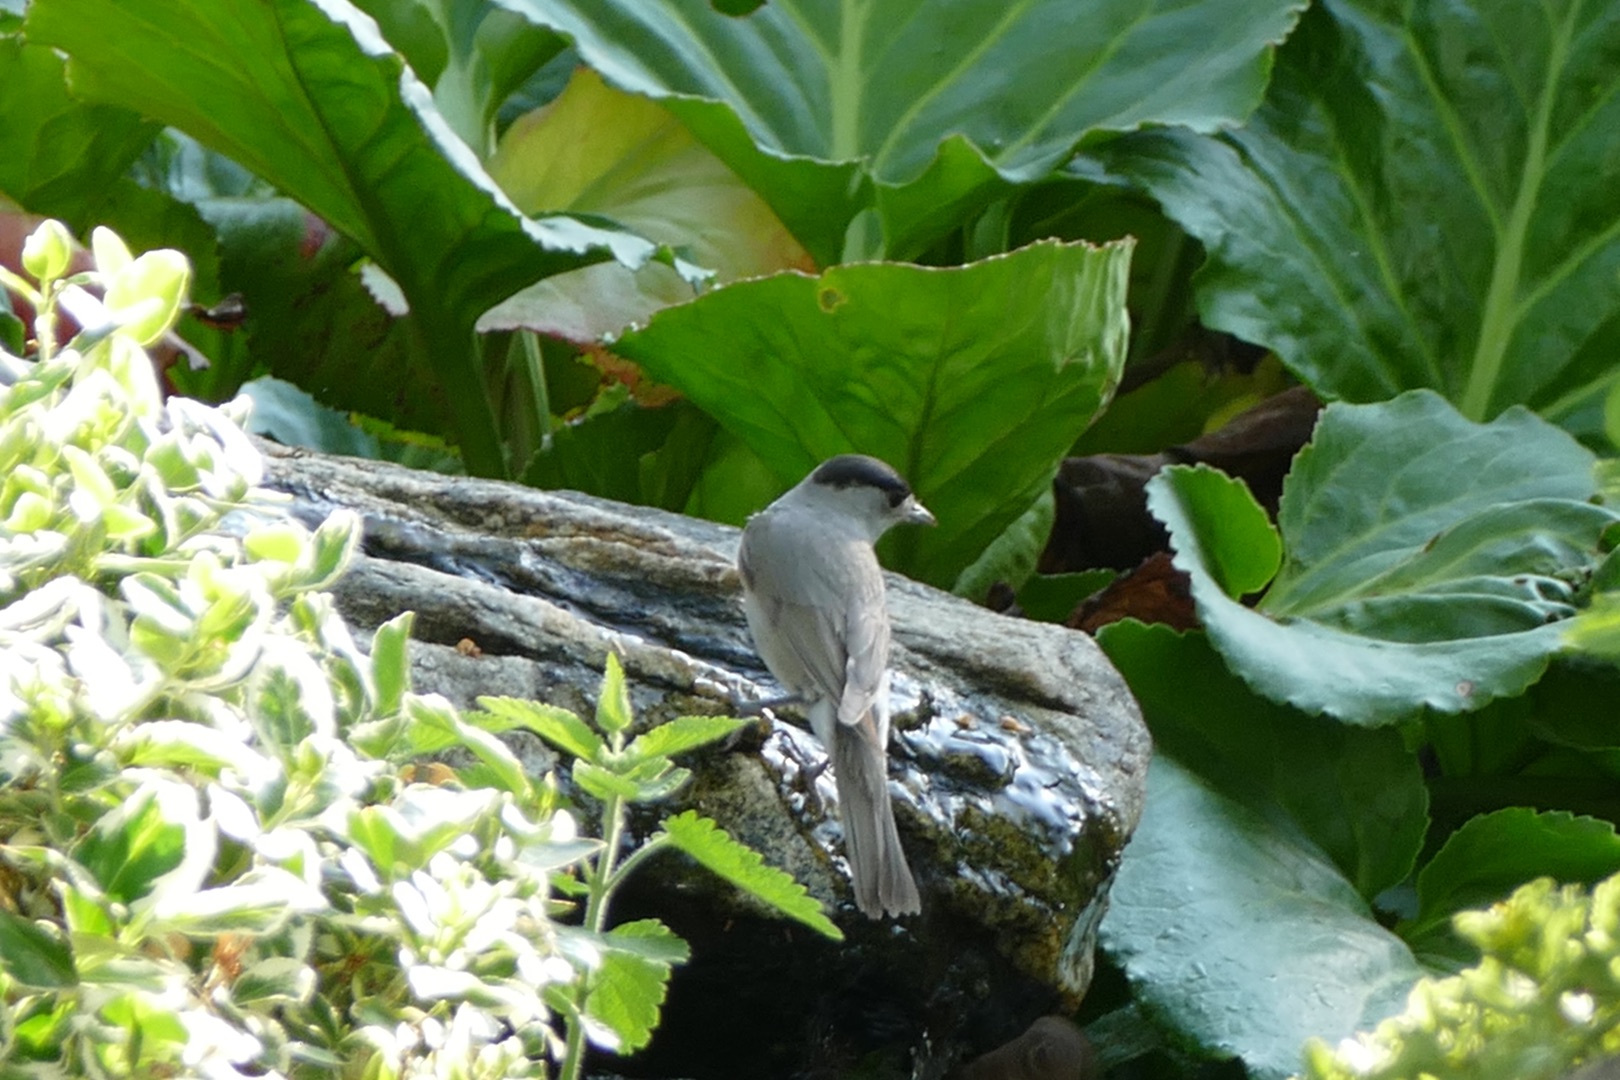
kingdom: Animalia
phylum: Chordata
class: Aves
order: Passeriformes
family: Sylviidae
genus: Sylvia
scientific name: Sylvia atricapilla
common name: Munk
